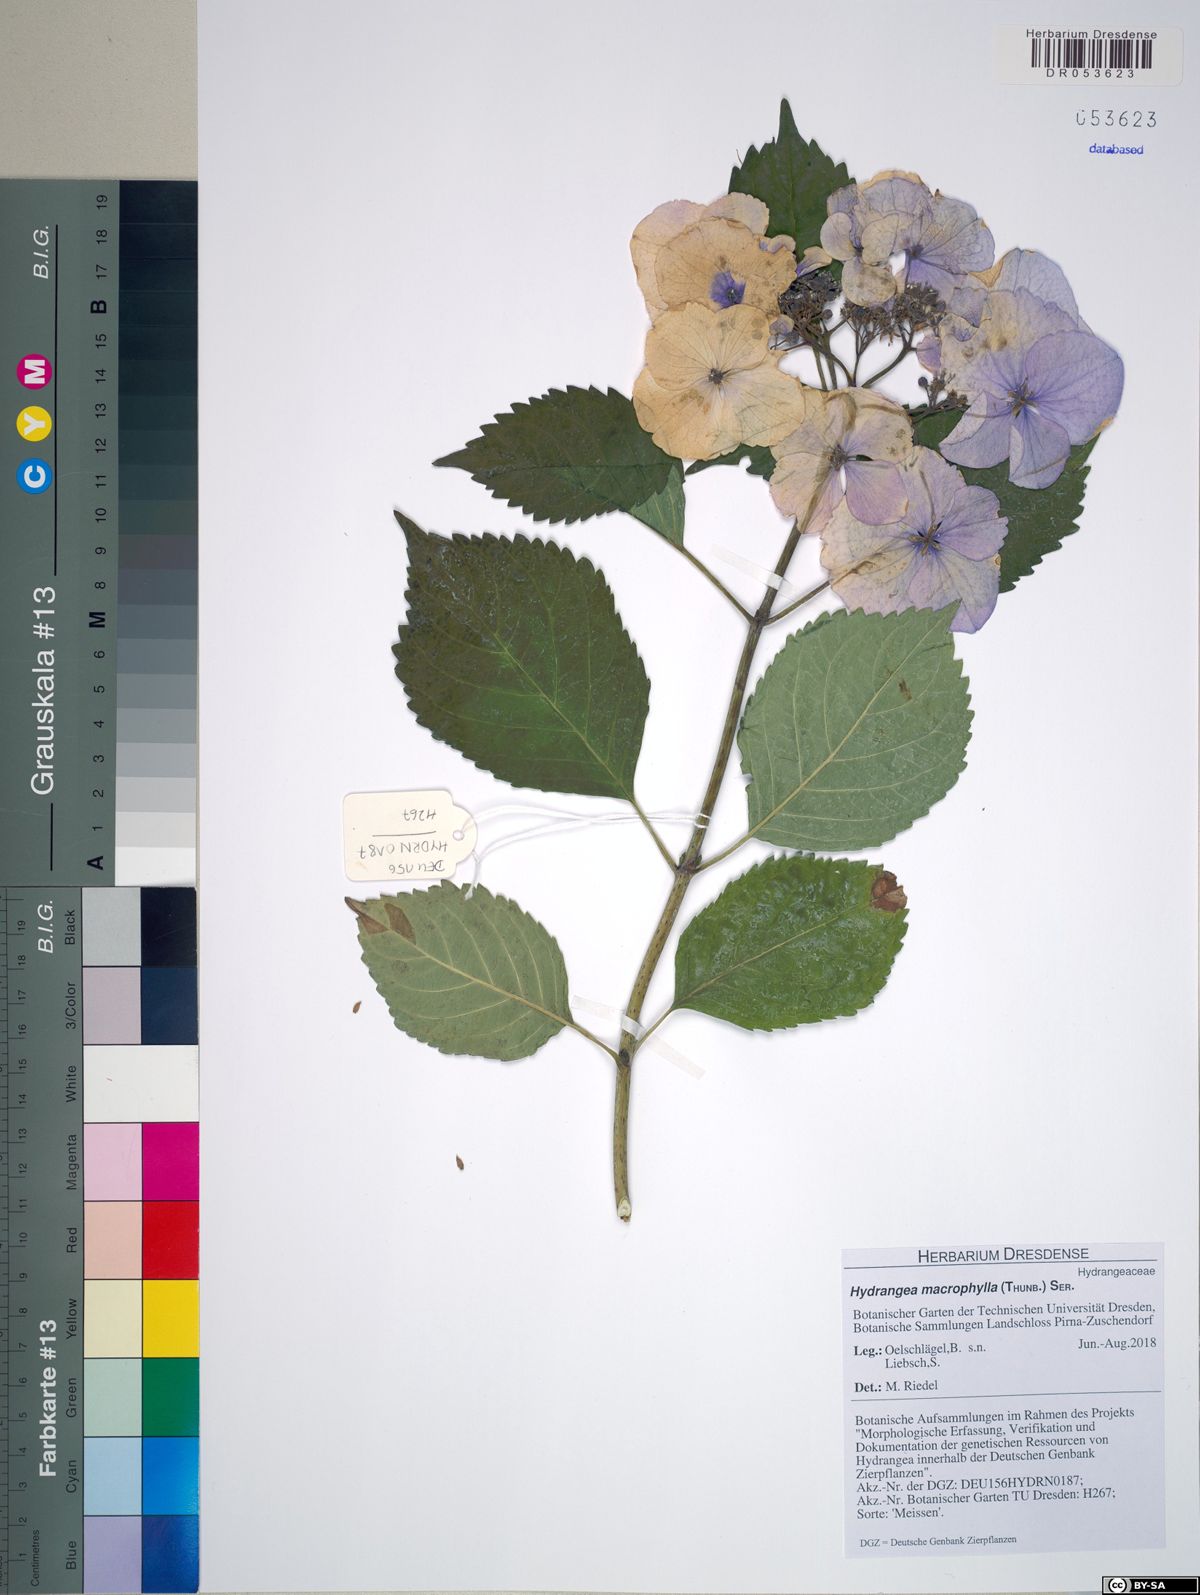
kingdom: Plantae
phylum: Tracheophyta
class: Magnoliopsida
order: Cornales
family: Hydrangeaceae
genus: Hydrangea
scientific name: Hydrangea macrophylla
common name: Hydrangea
